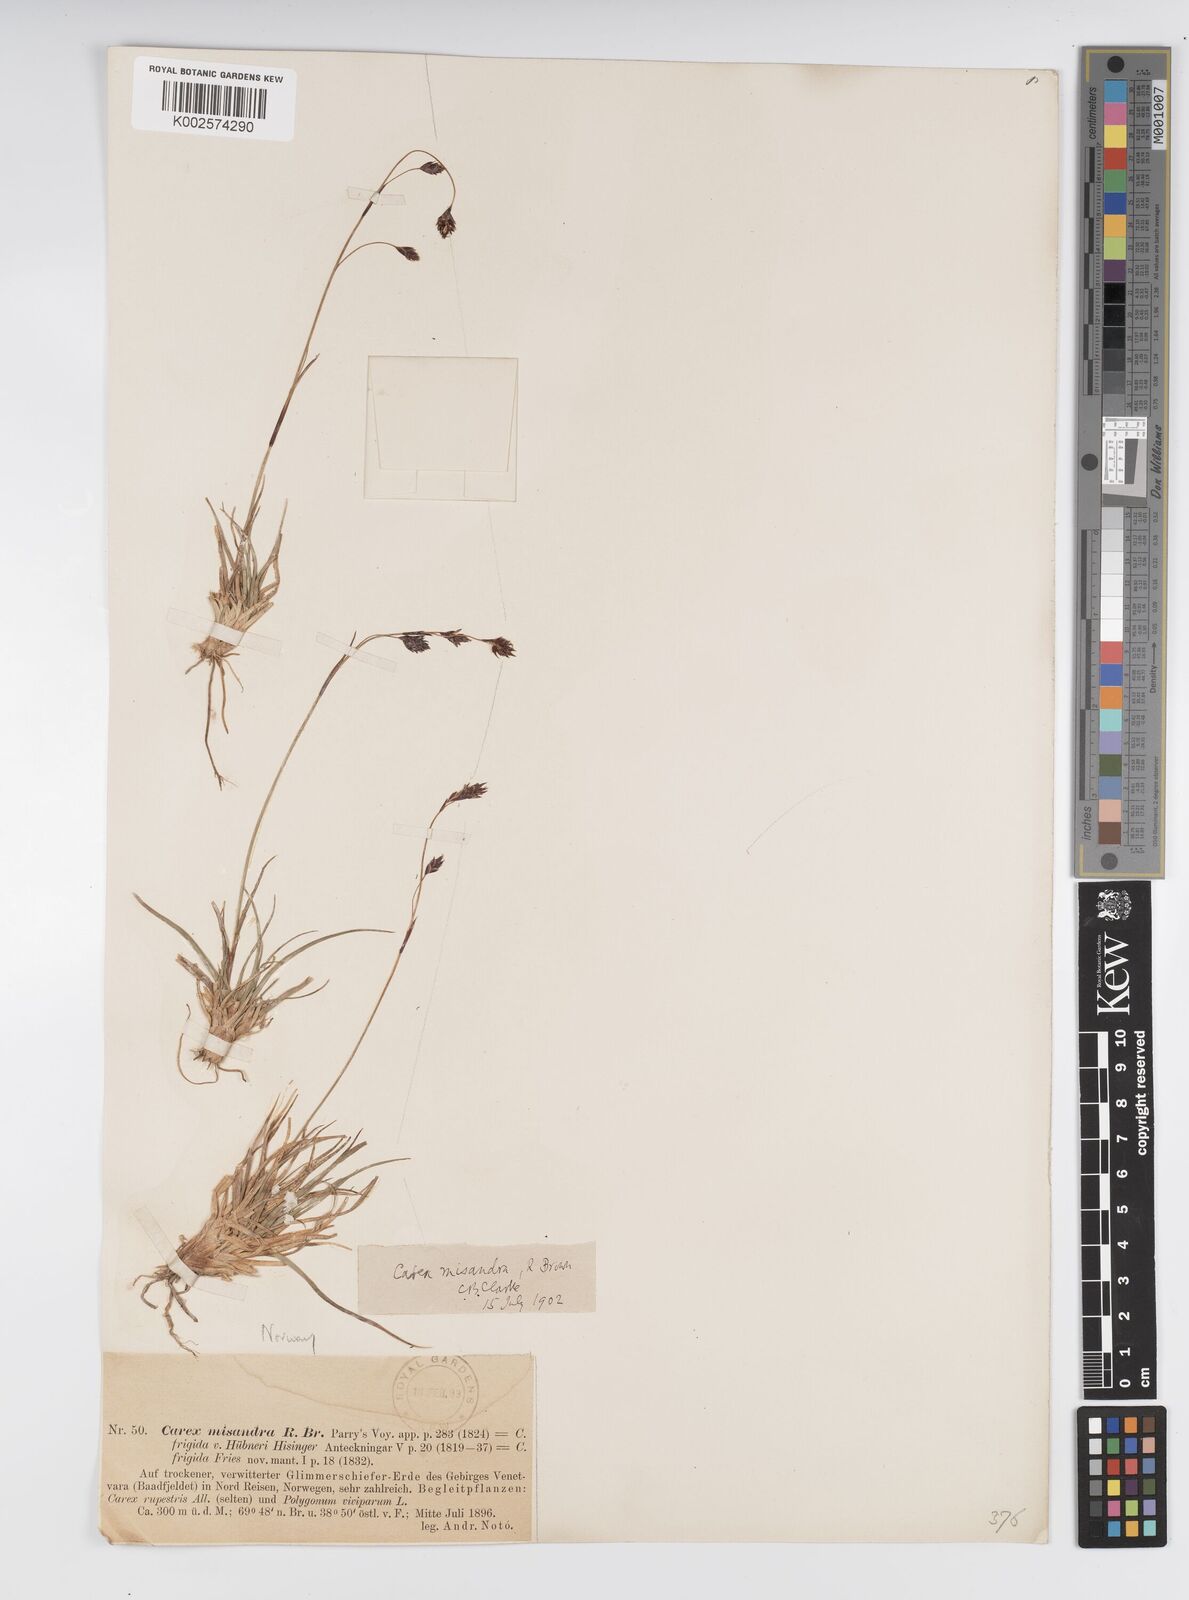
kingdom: Plantae
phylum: Tracheophyta
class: Liliopsida
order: Poales
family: Cyperaceae
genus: Carex
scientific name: Carex fuliginosa
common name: Few-flowered sedge
